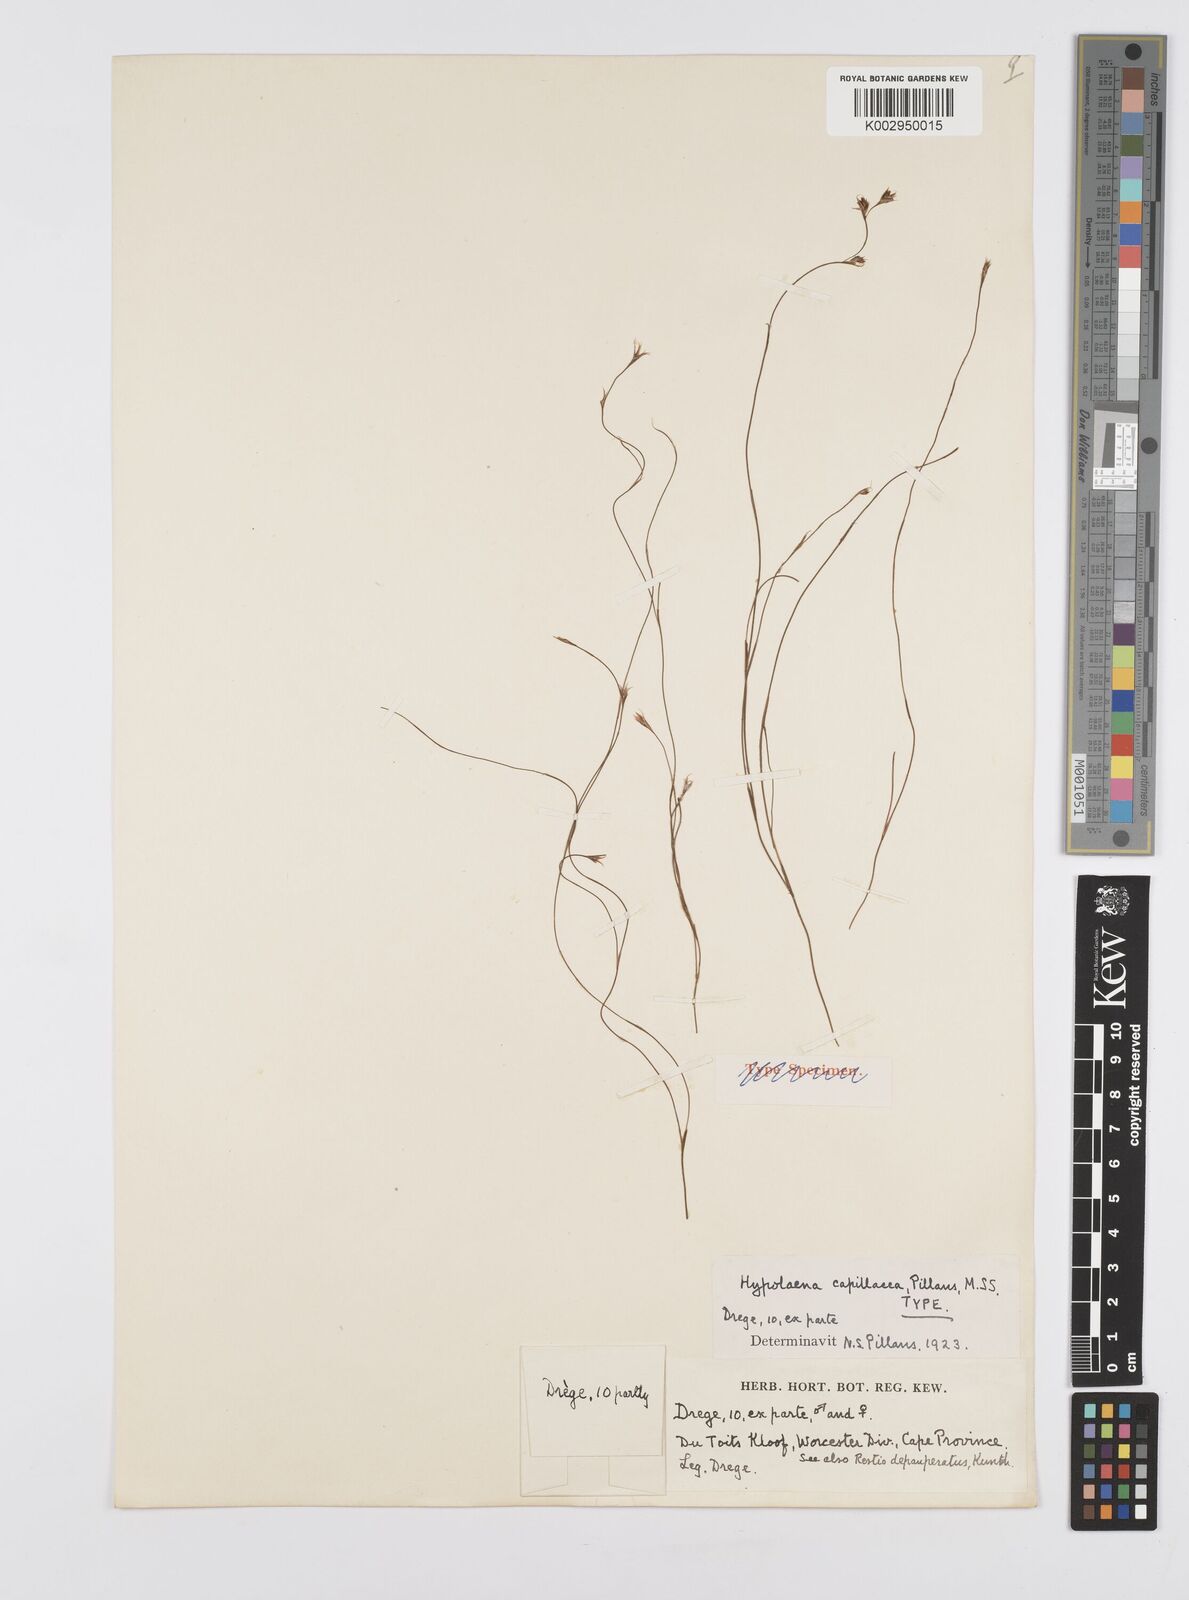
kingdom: Plantae
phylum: Tracheophyta
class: Liliopsida
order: Poales
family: Restionaceae
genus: Anthochortus
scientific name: Anthochortus
